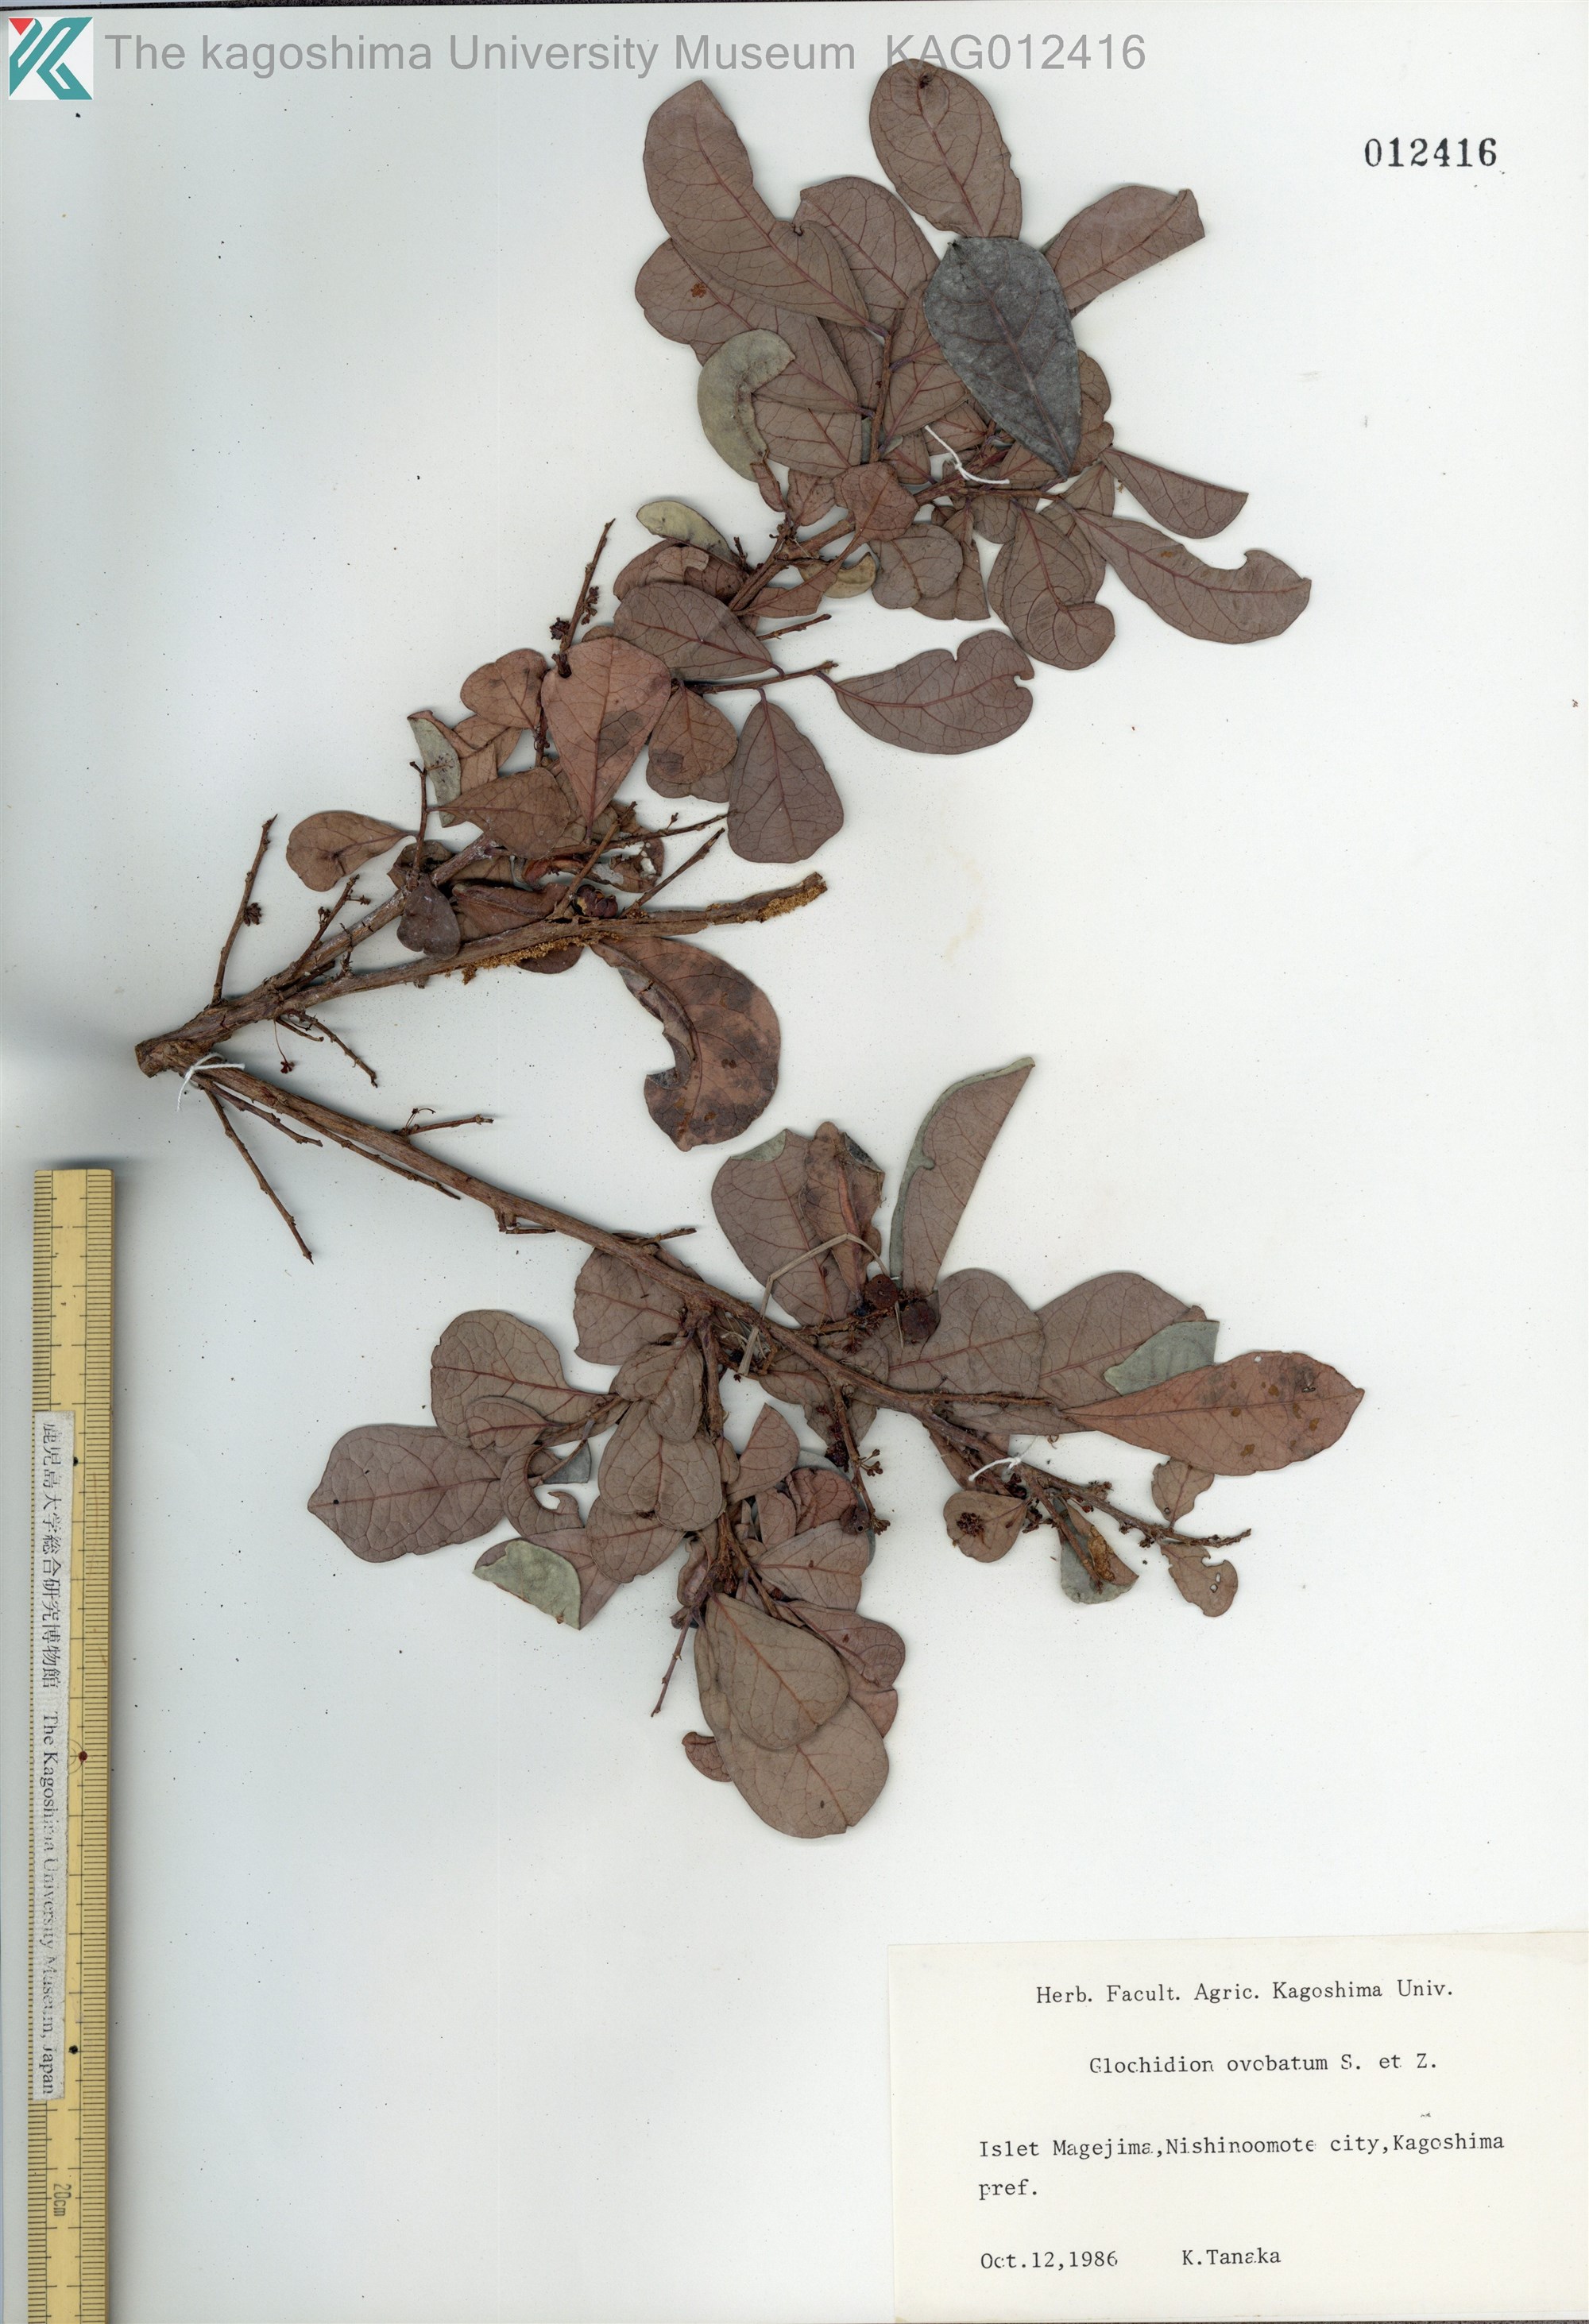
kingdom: Plantae
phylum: Tracheophyta
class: Magnoliopsida
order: Malpighiales
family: Phyllanthaceae
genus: Glochidion
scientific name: Glochidion obovatum
